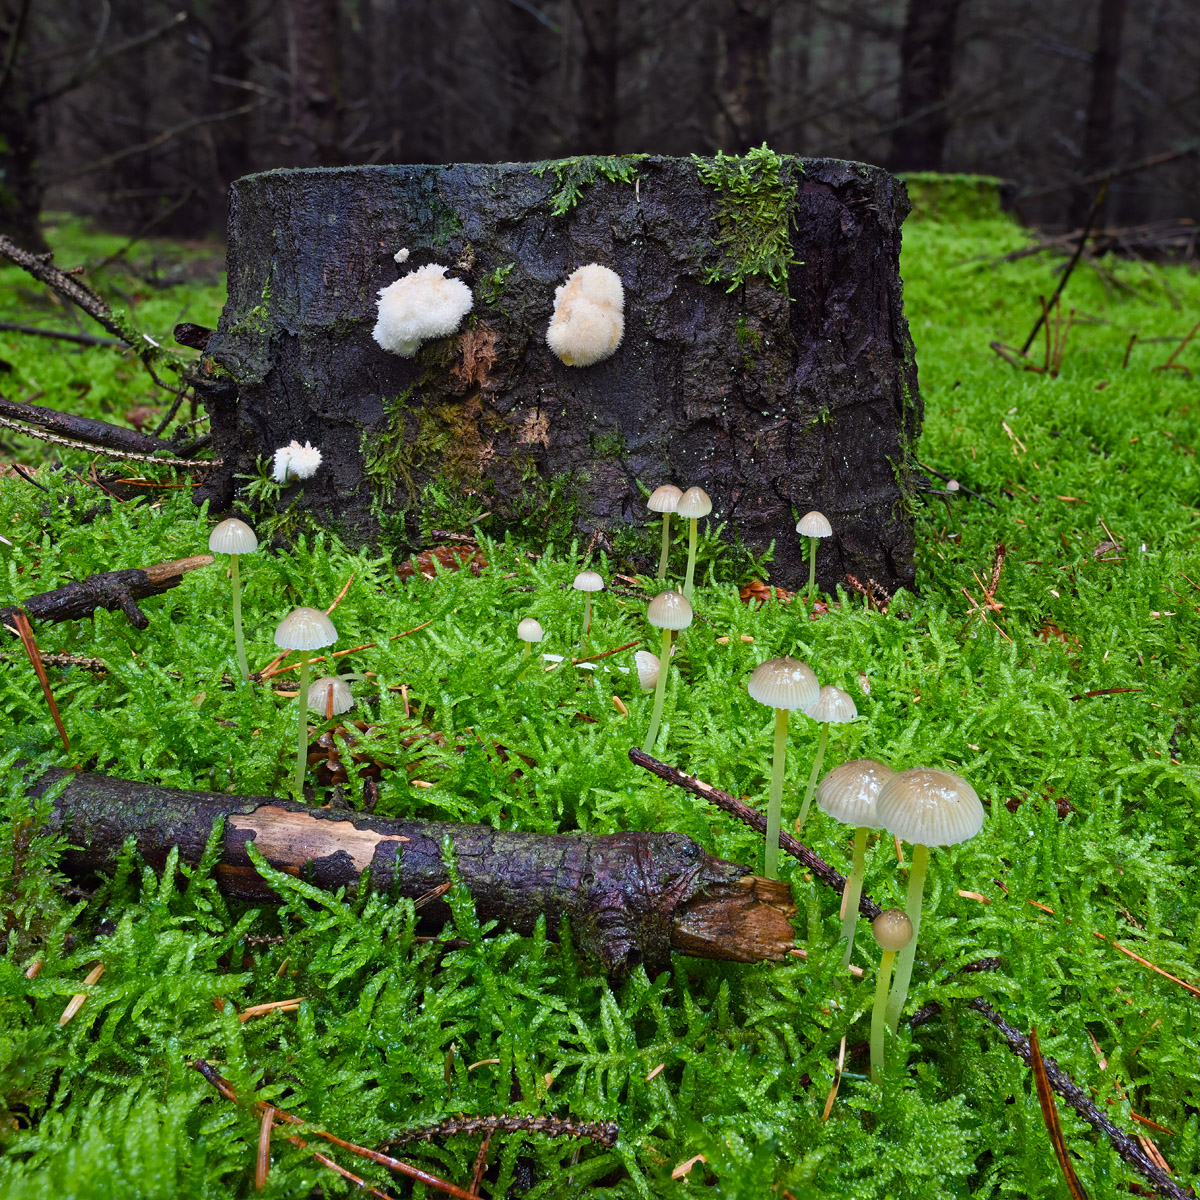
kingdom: Fungi
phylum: Basidiomycota
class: Agaricomycetes
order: Agaricales
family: Mycenaceae
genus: Mycena
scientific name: Mycena epipterygia
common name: gulstokket huesvamp
